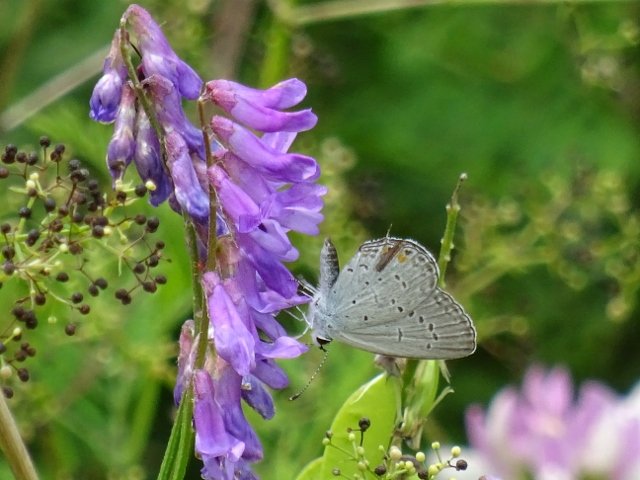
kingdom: Animalia
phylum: Arthropoda
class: Insecta
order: Lepidoptera
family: Lycaenidae
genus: Elkalyce
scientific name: Elkalyce comyntas
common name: Eastern Tailed-Blue
